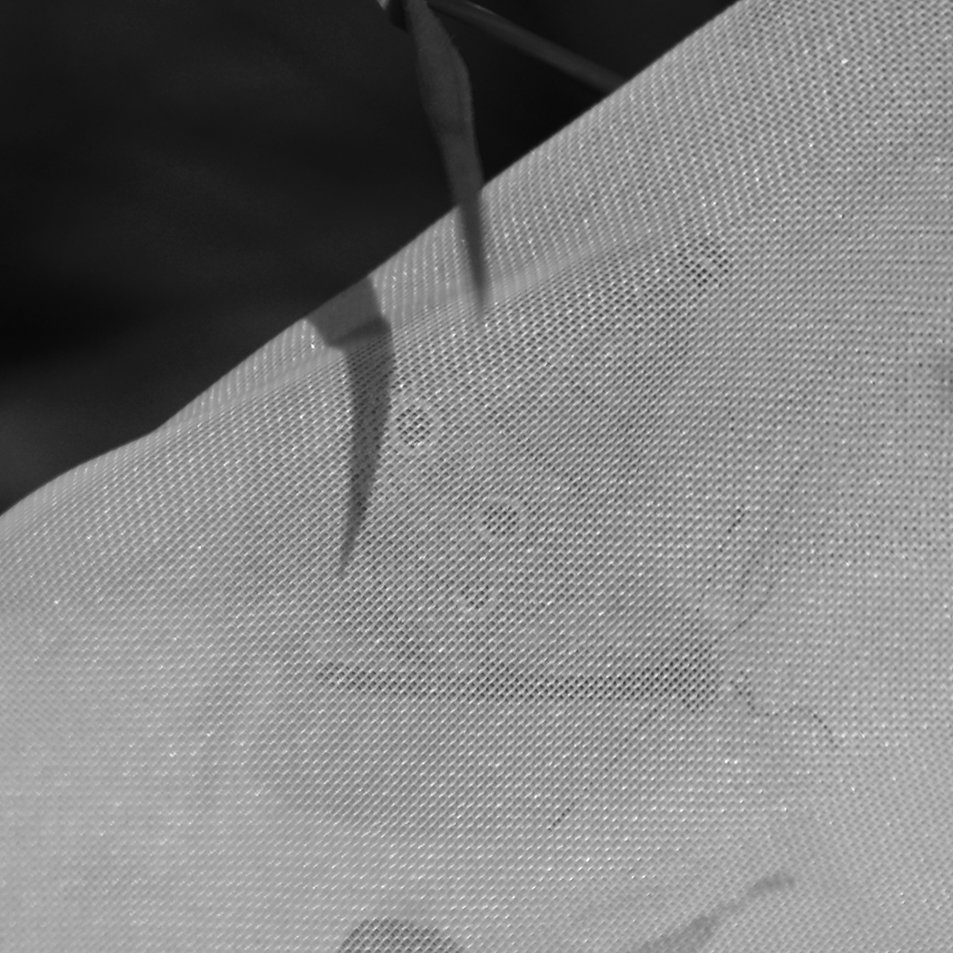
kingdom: Animalia
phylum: Arthropoda
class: Insecta
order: Lepidoptera
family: Nymphalidae
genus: Euptychia
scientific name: Euptychia cymela
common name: Little Wood Satyr
